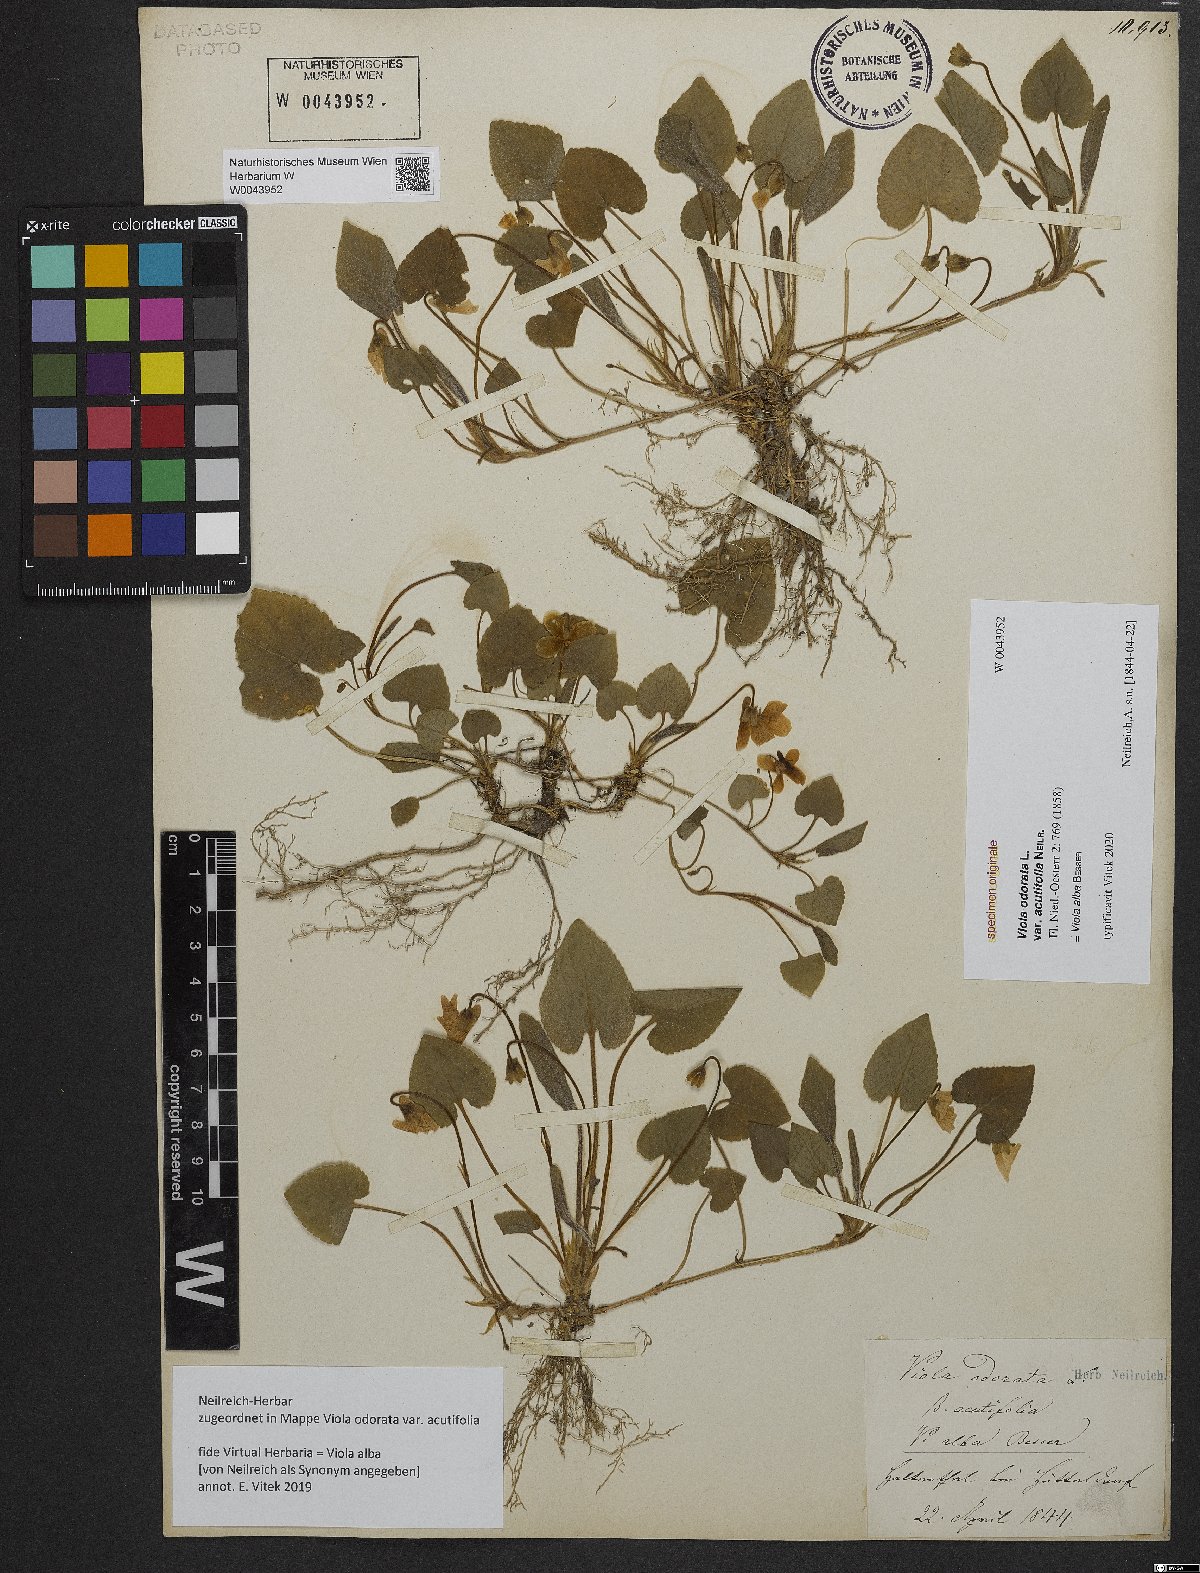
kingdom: Plantae
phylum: Tracheophyta
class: Magnoliopsida
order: Malpighiales
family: Violaceae
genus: Viola
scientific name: Viola odorata
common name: Sweet violet
